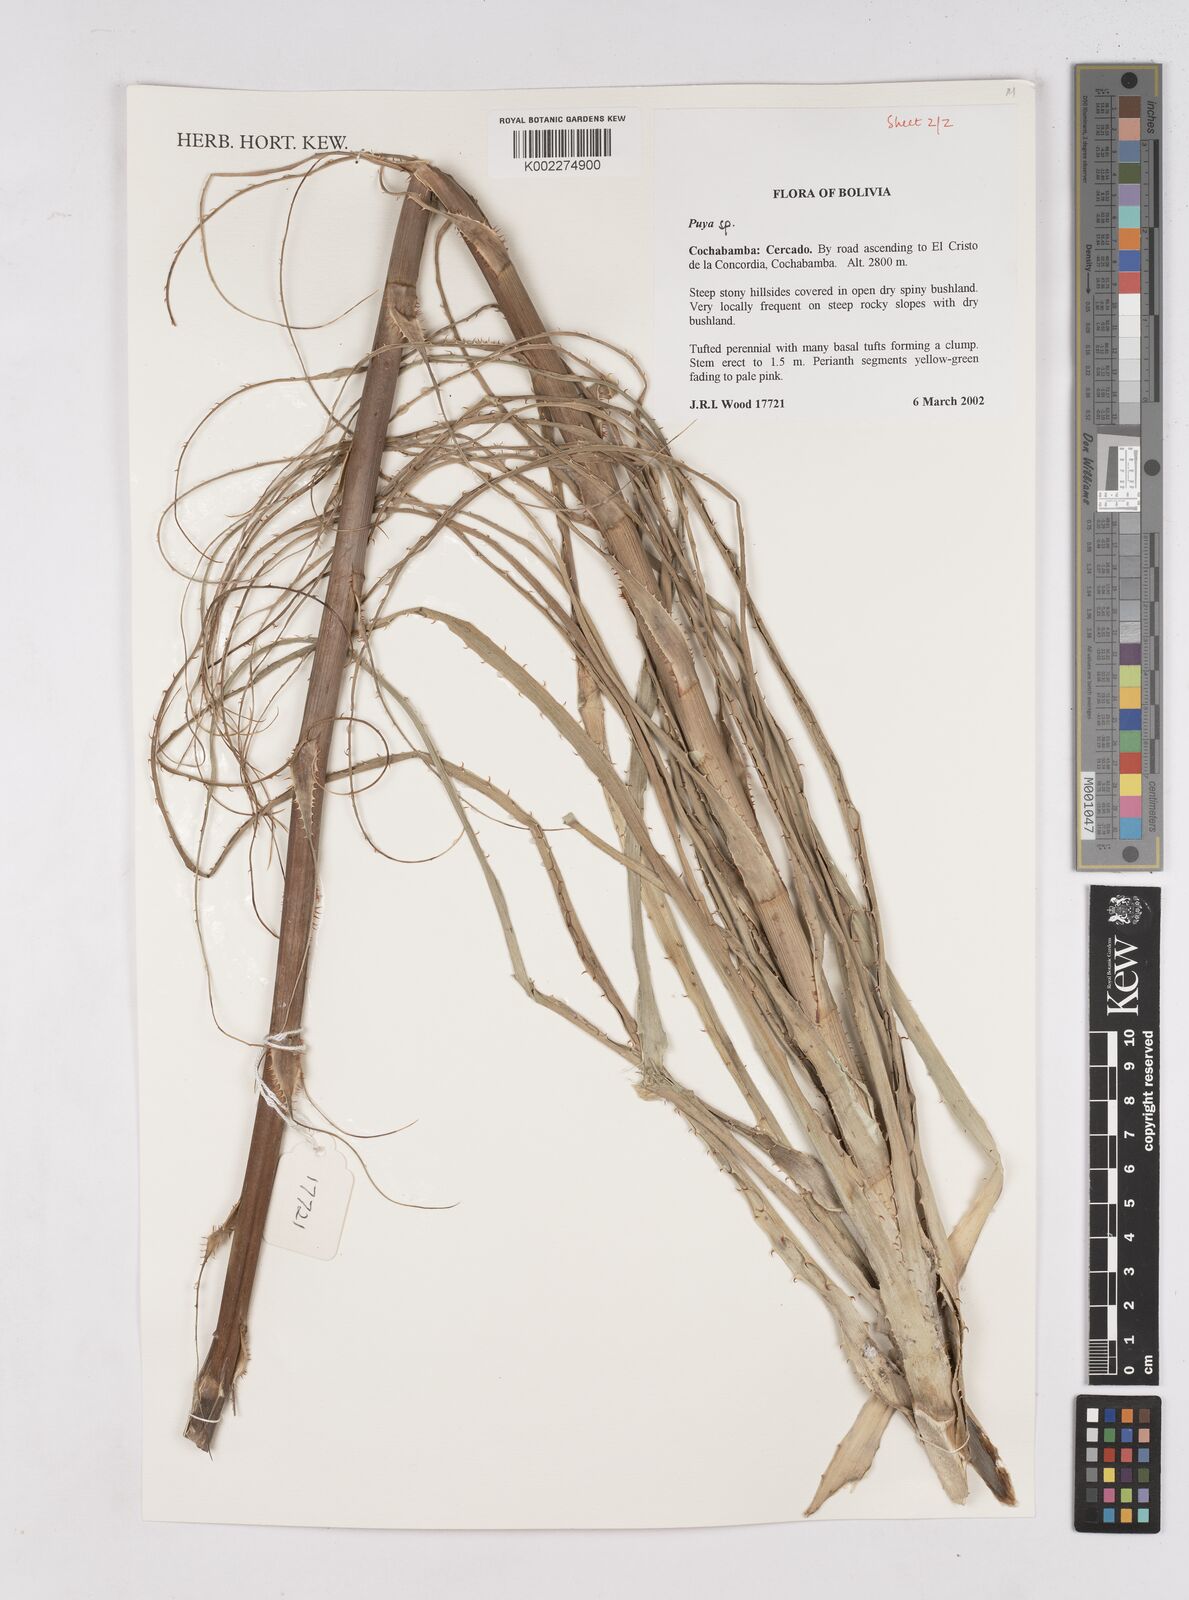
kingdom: Plantae
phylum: Tracheophyta
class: Liliopsida
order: Poales
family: Bromeliaceae
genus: Puya
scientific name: Puya
